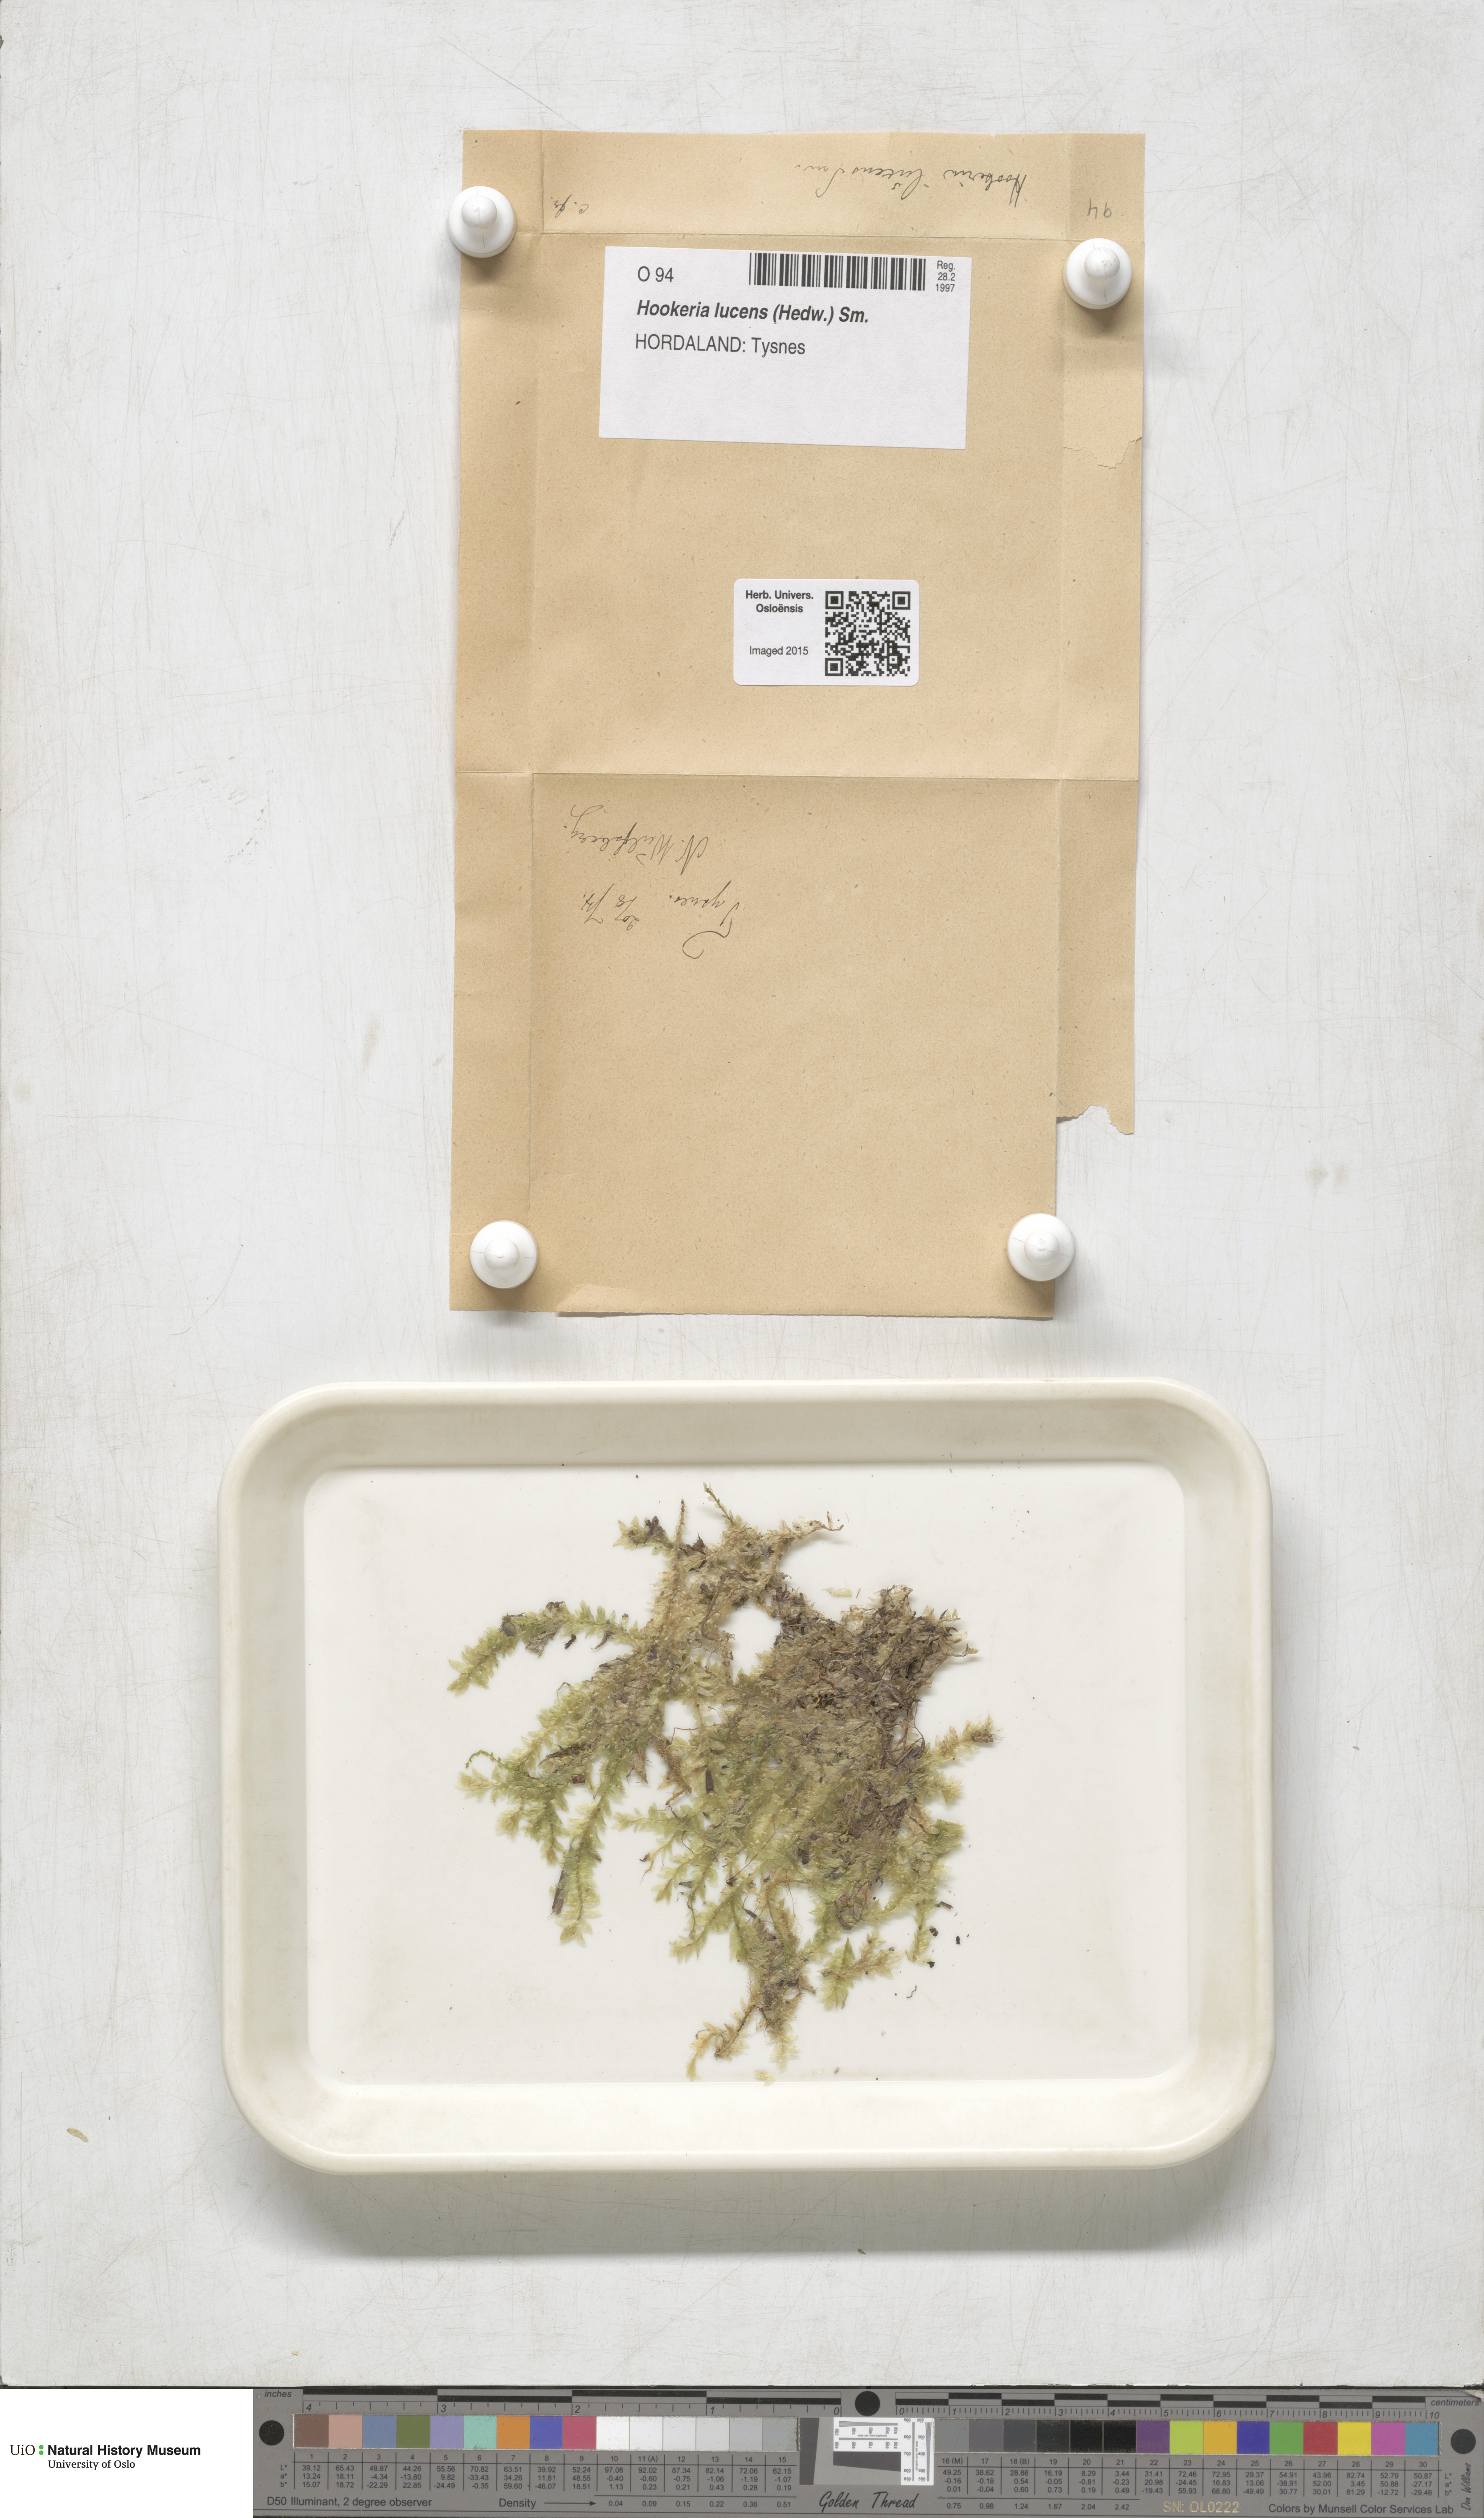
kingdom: Plantae
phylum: Bryophyta
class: Bryopsida
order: Hookeriales
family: Hookeriaceae
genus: Hookeria
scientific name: Hookeria lucens
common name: Shining hookeria
